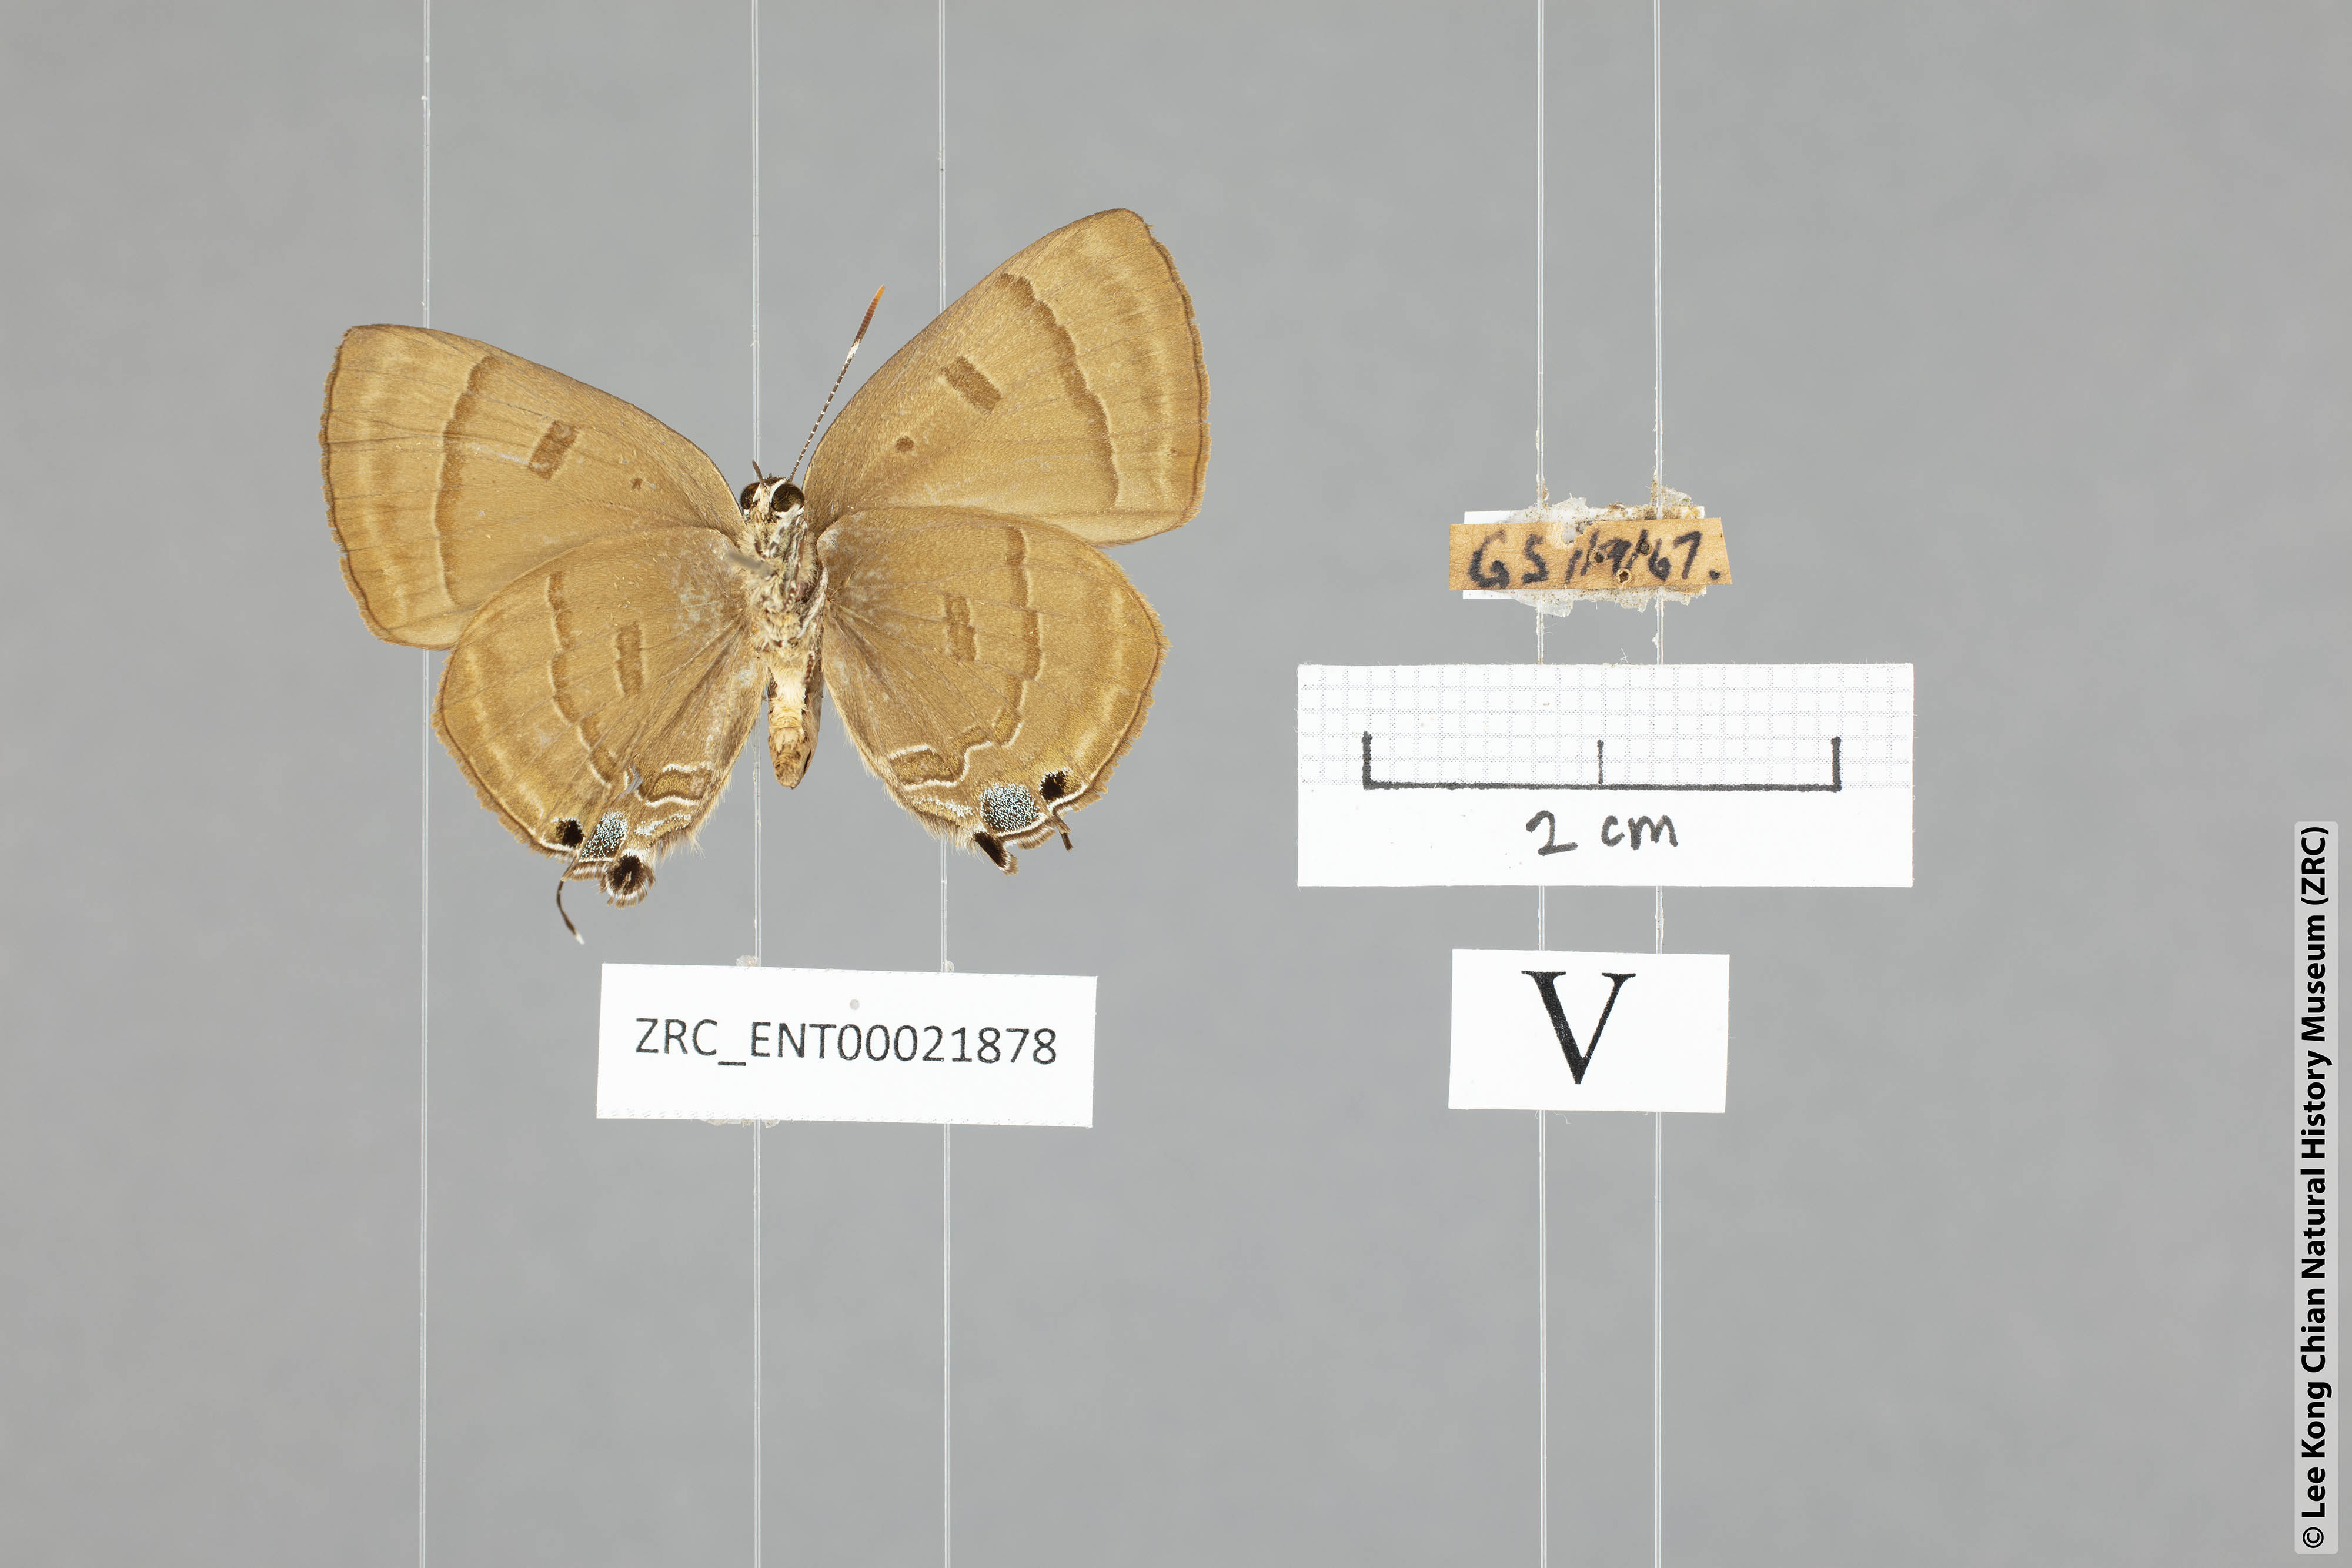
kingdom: Animalia
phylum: Arthropoda
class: Insecta
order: Lepidoptera
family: Lycaenidae
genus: Rapala
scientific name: Rapala pheretima
